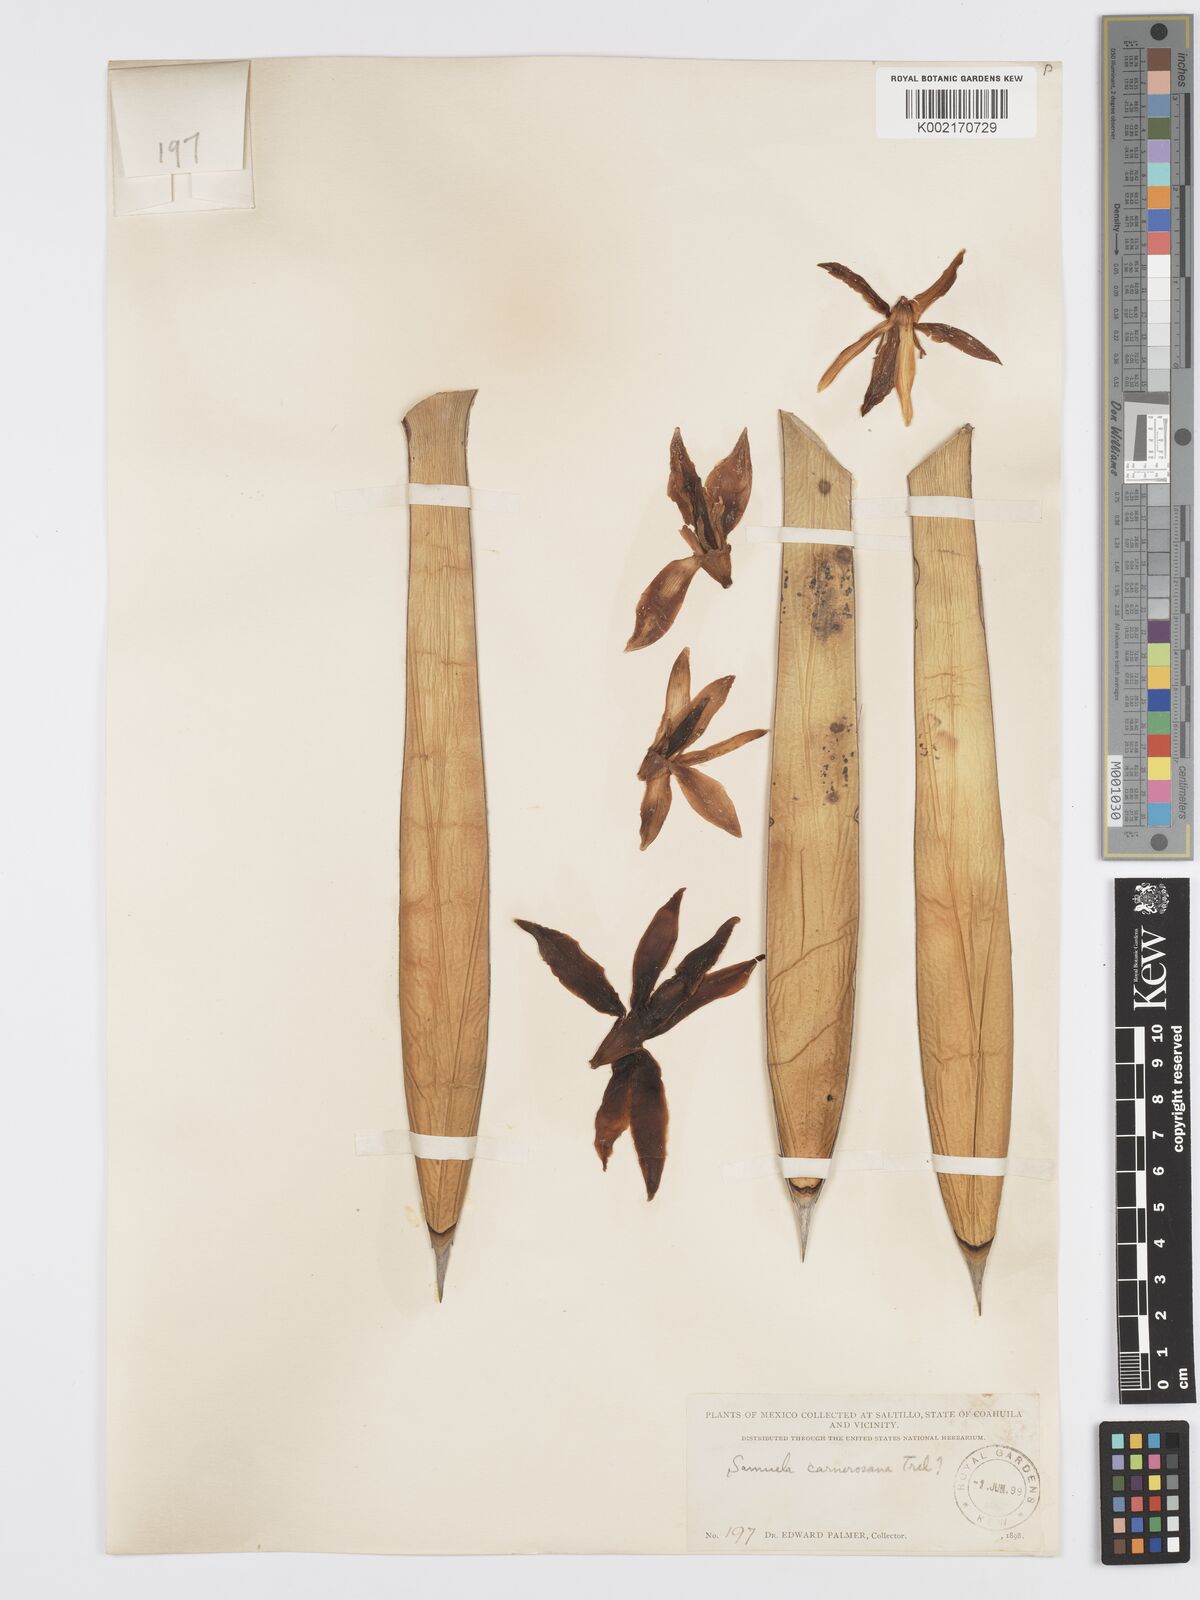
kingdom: Plantae
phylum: Tracheophyta
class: Liliopsida
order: Asparagales
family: Asparagaceae
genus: Yucca
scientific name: Yucca carnerosana
